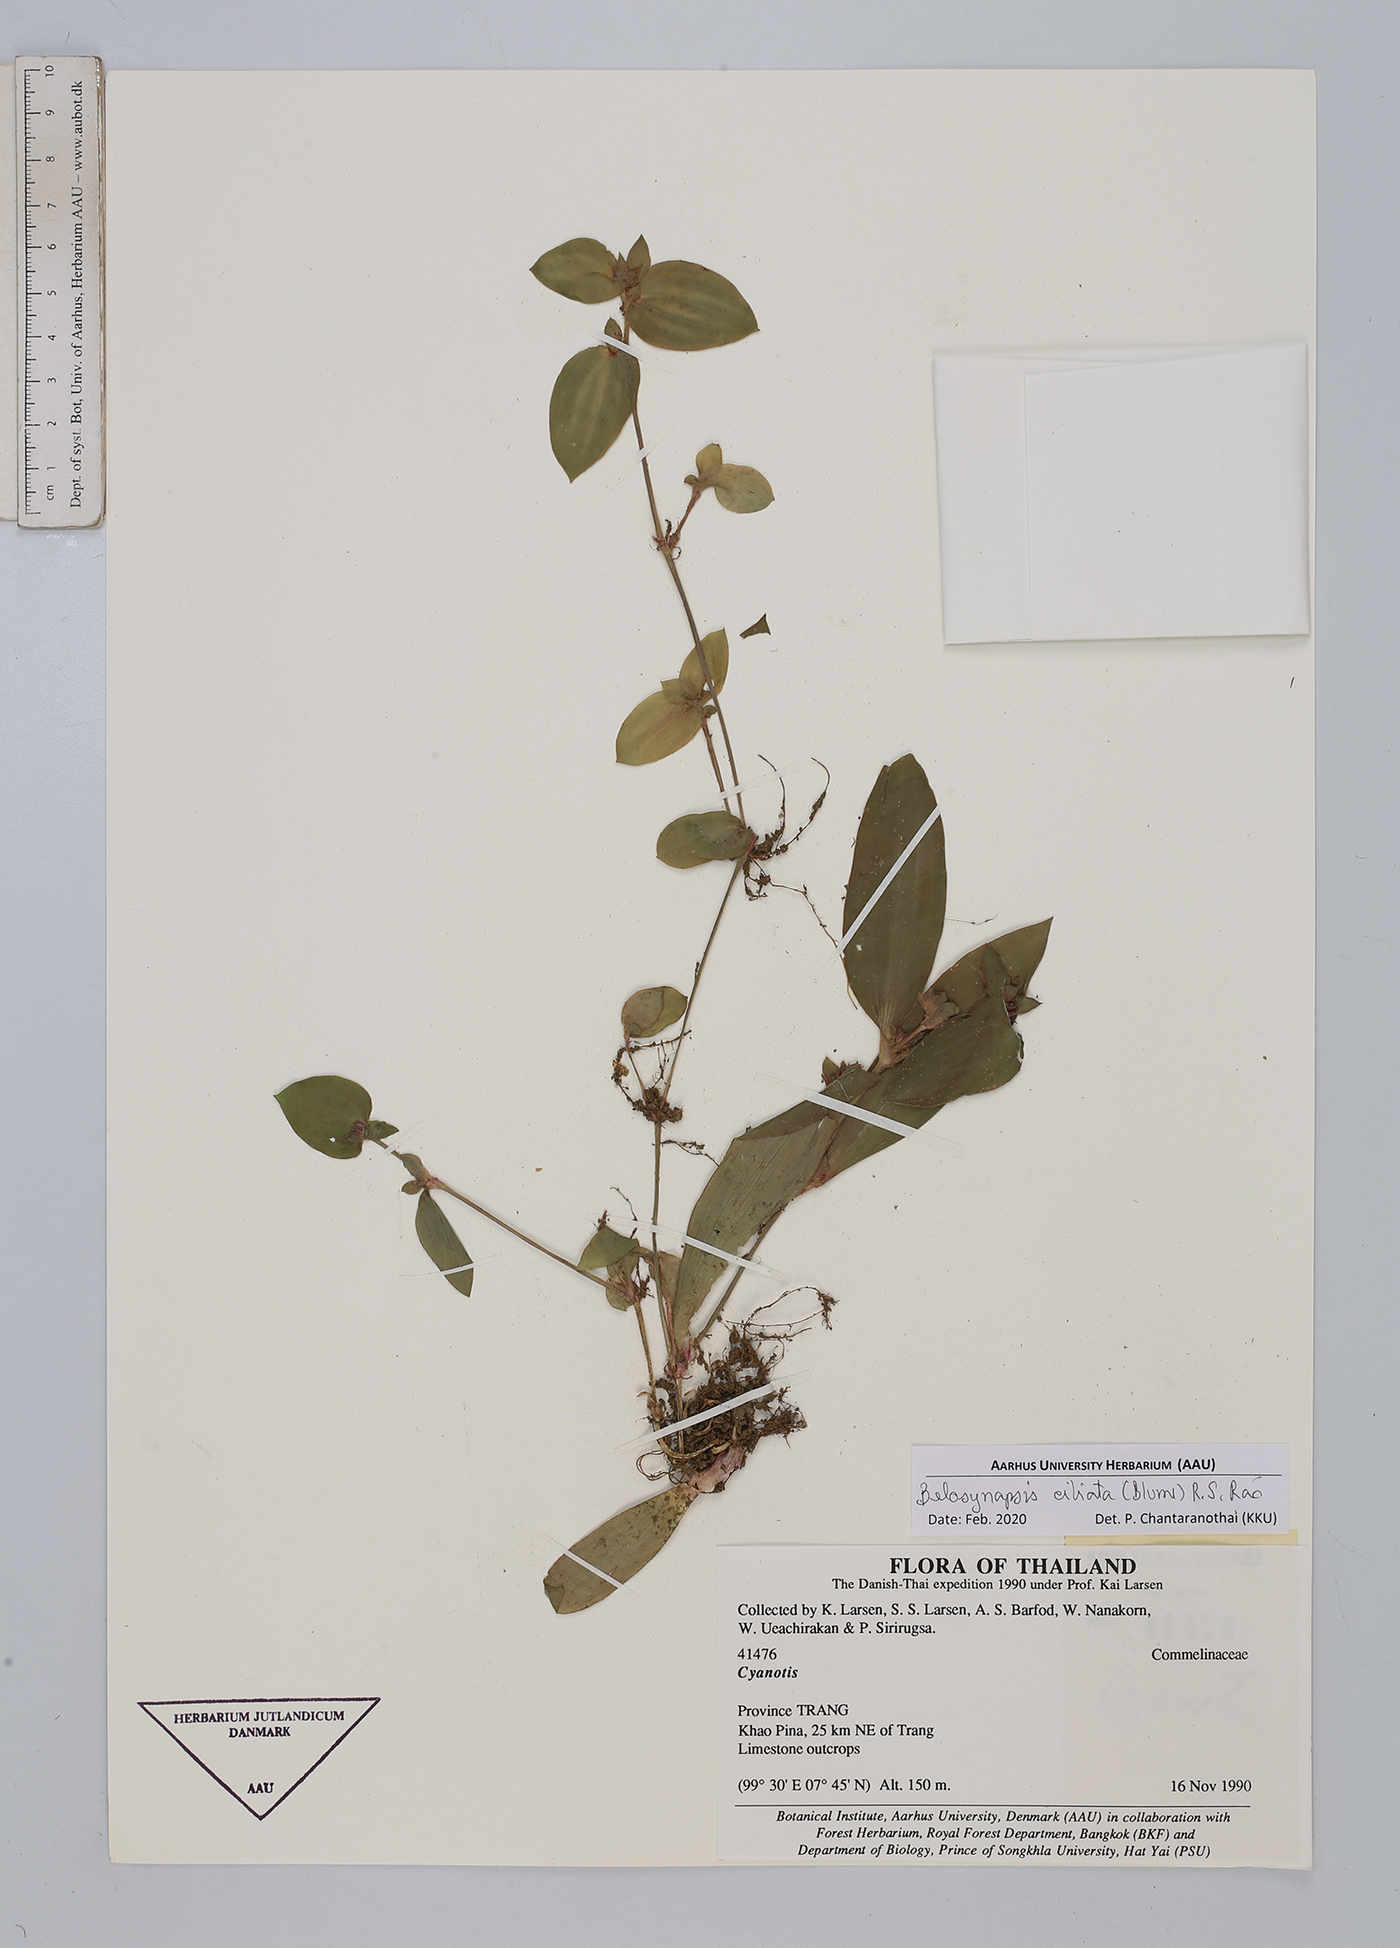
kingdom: Plantae
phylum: Tracheophyta
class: Liliopsida
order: Commelinales
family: Commelinaceae
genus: Cyanotis
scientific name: Cyanotis ciliata
